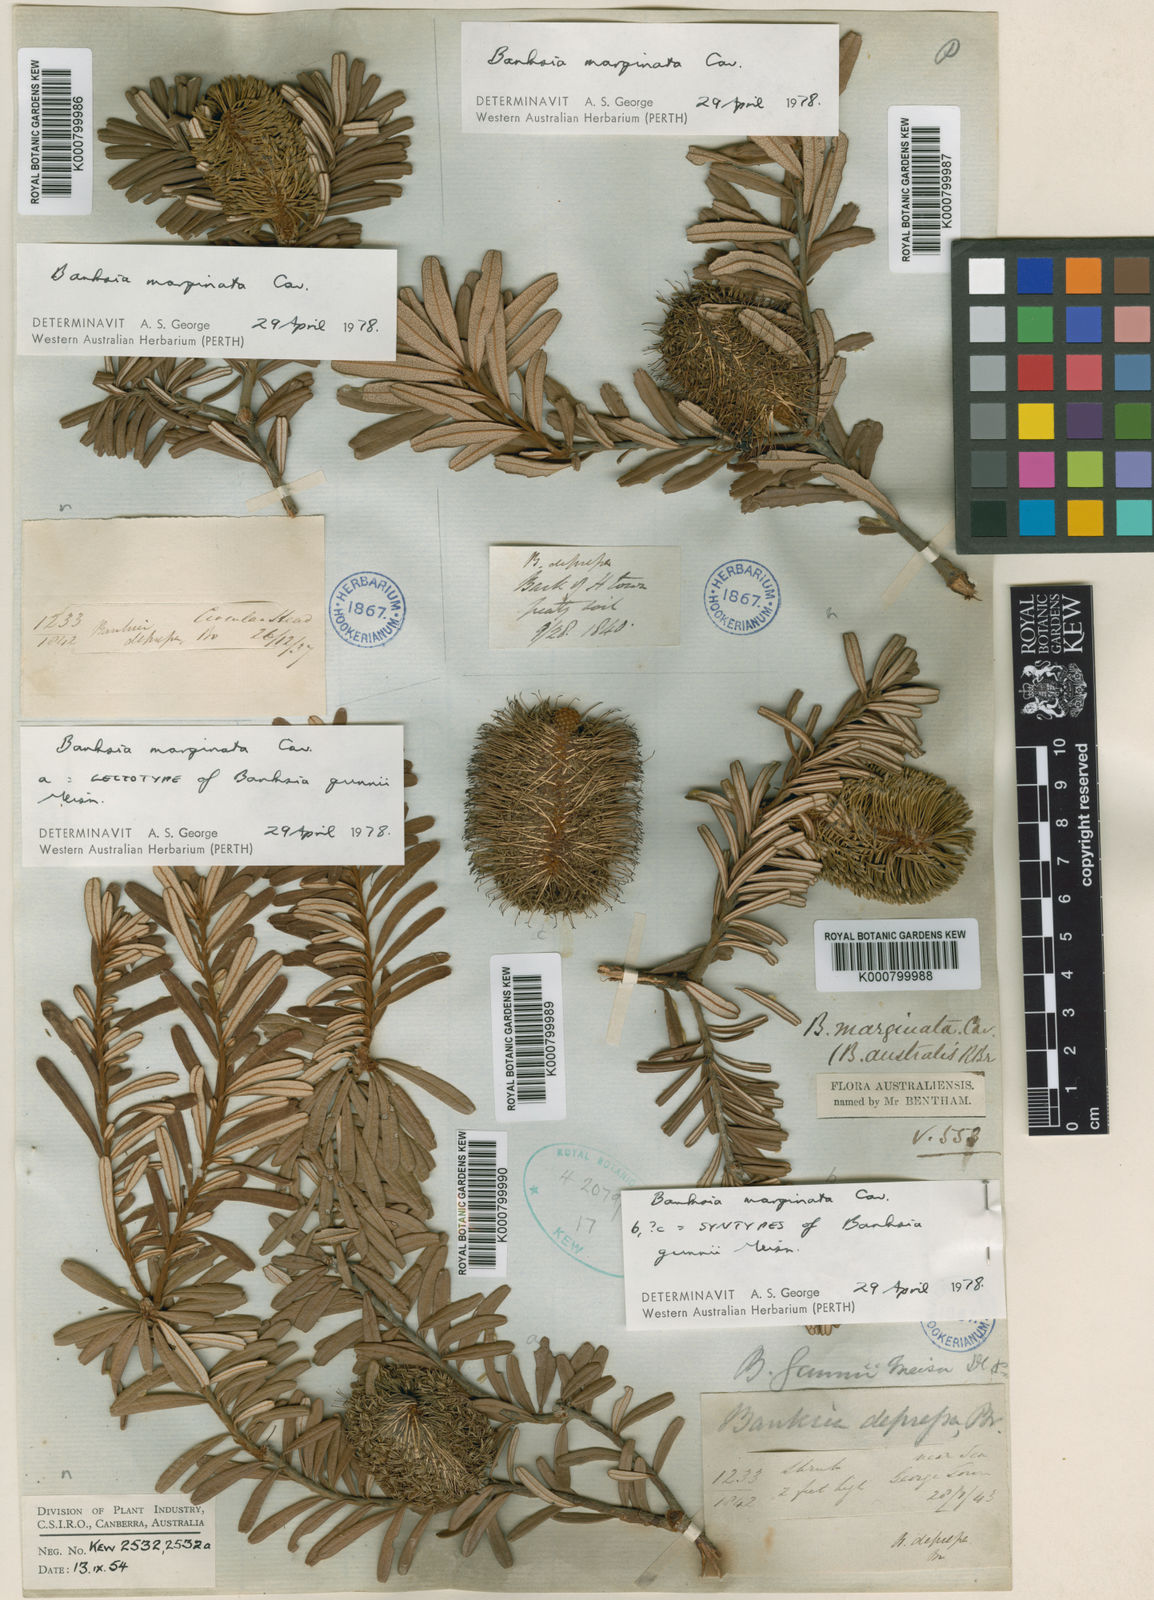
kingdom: Plantae
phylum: Tracheophyta
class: Magnoliopsida
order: Proteales
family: Proteaceae
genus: Banksia
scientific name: Banksia marginata
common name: Silver banksia
